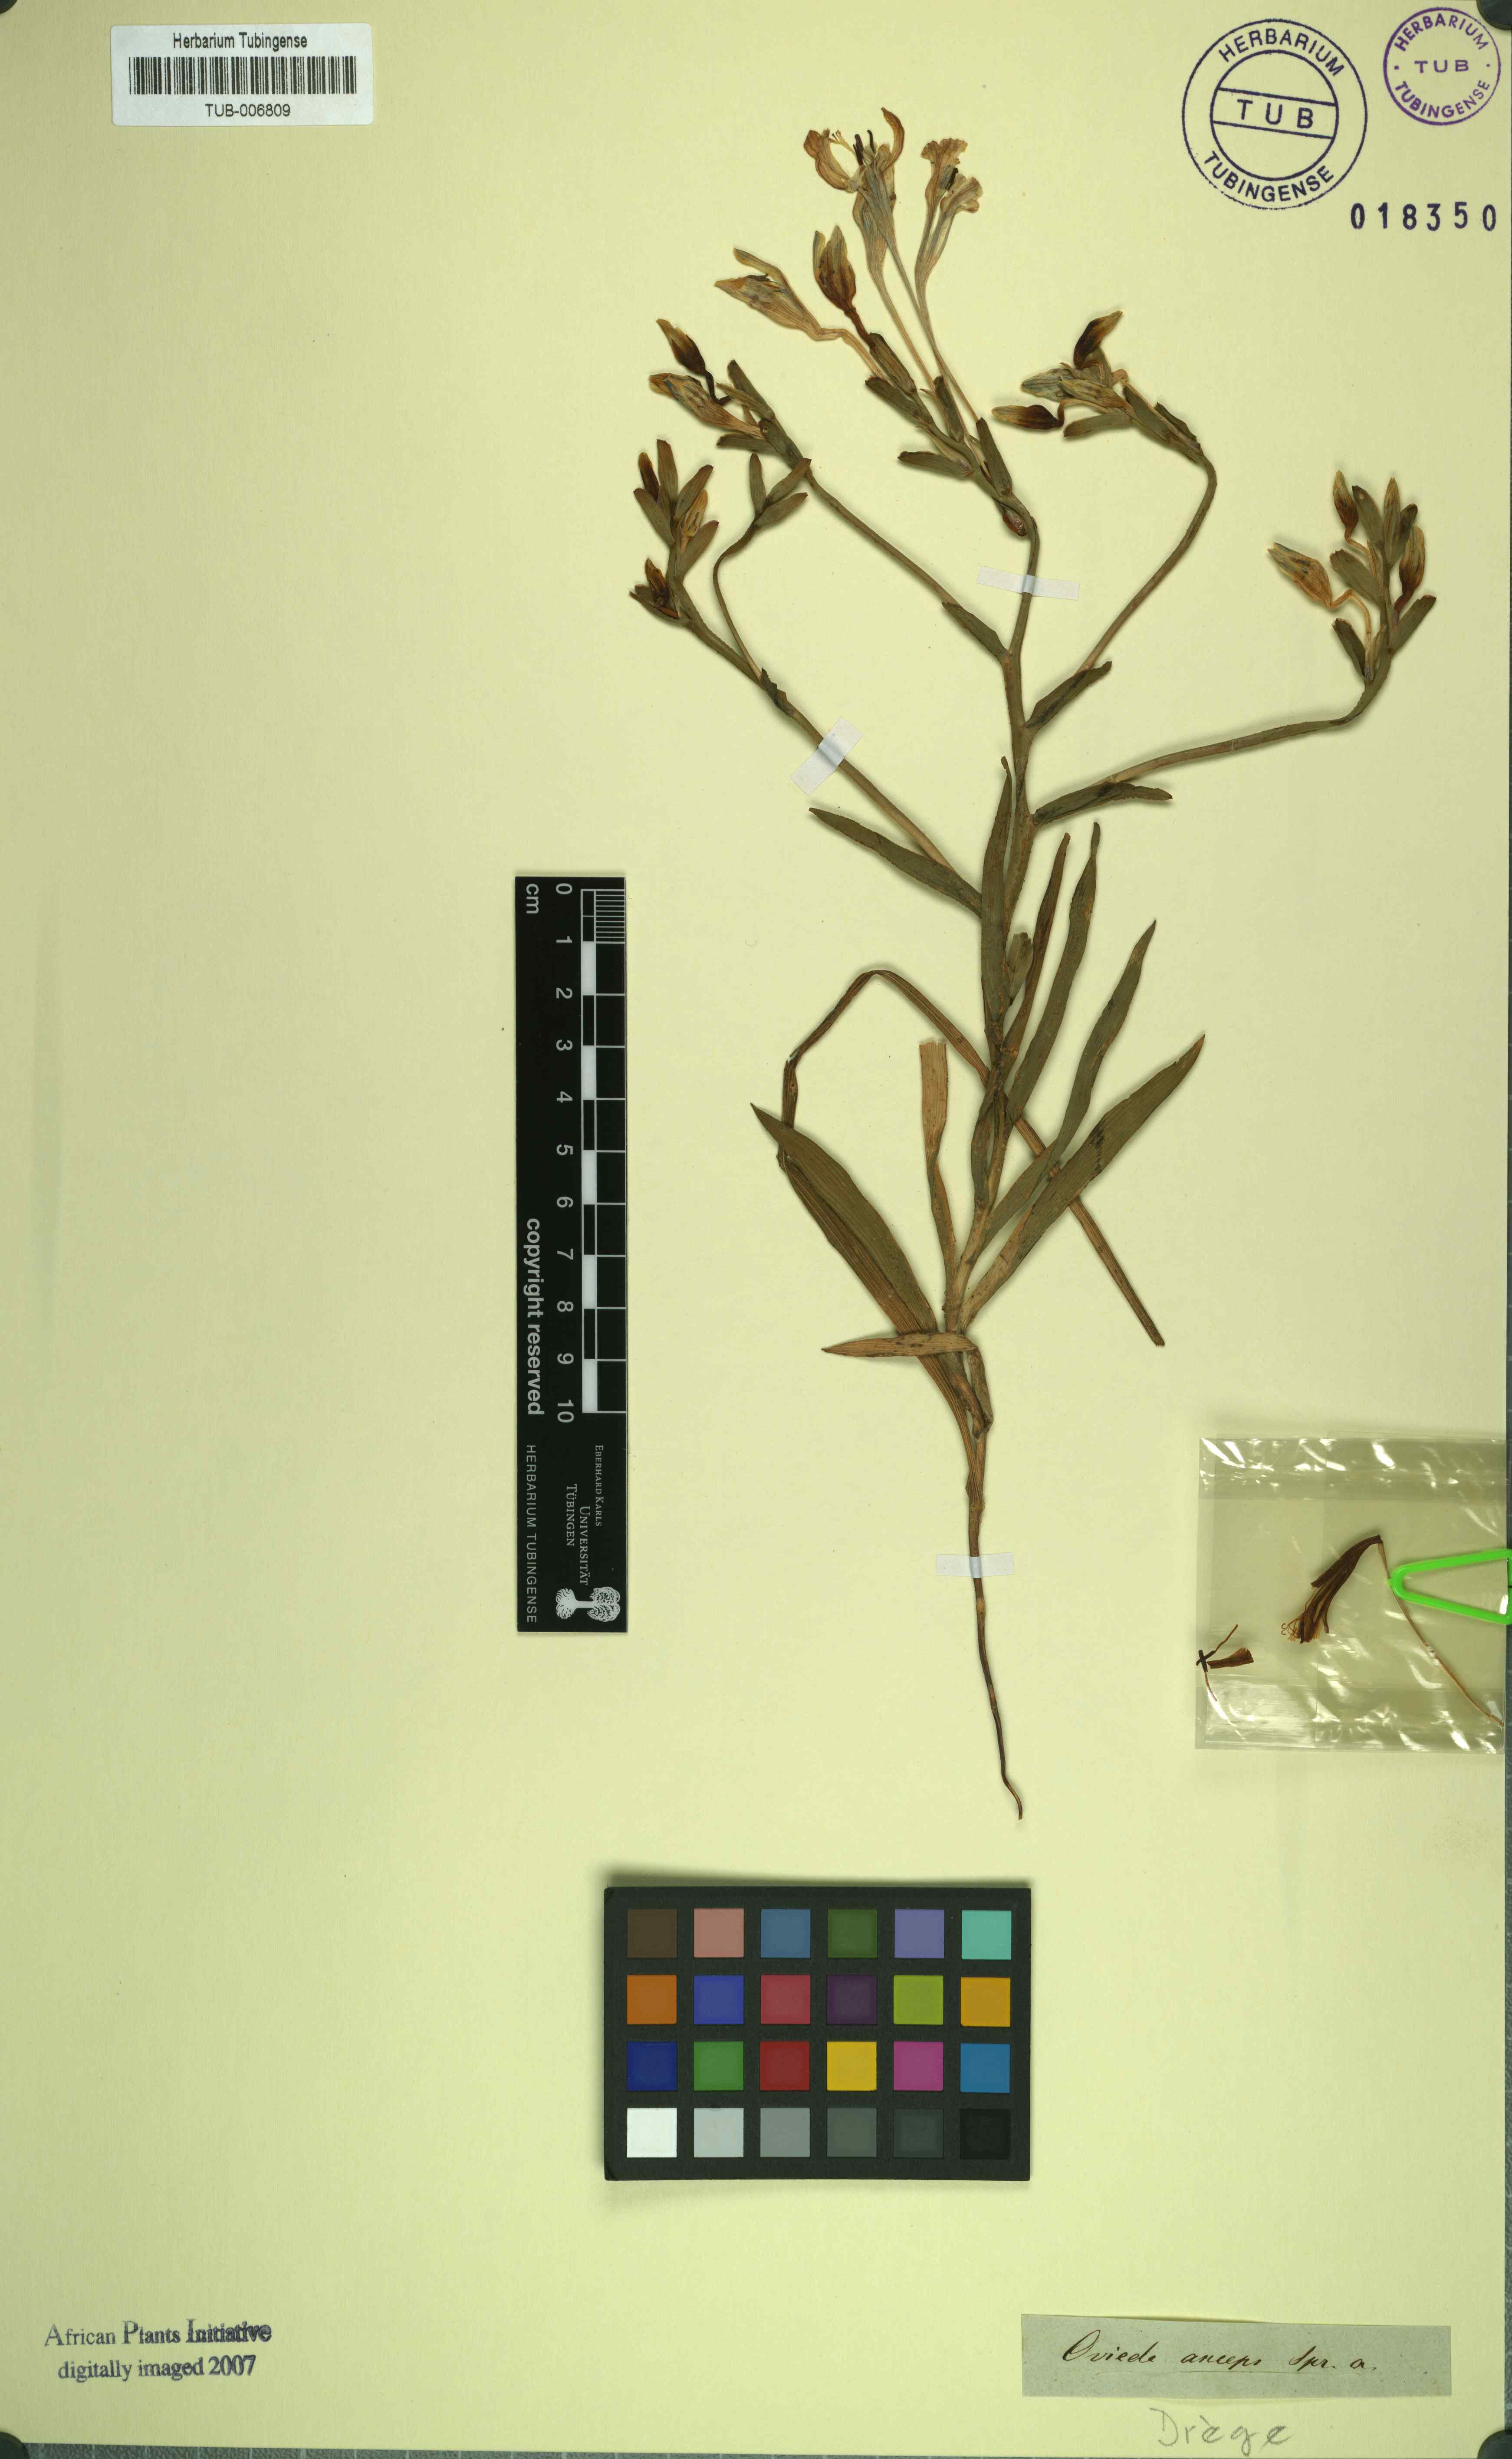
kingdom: Plantae
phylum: Tracheophyta
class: Liliopsida
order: Asparagales
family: Iridaceae
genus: Lapeirousia
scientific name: Lapeirousia fabricii
